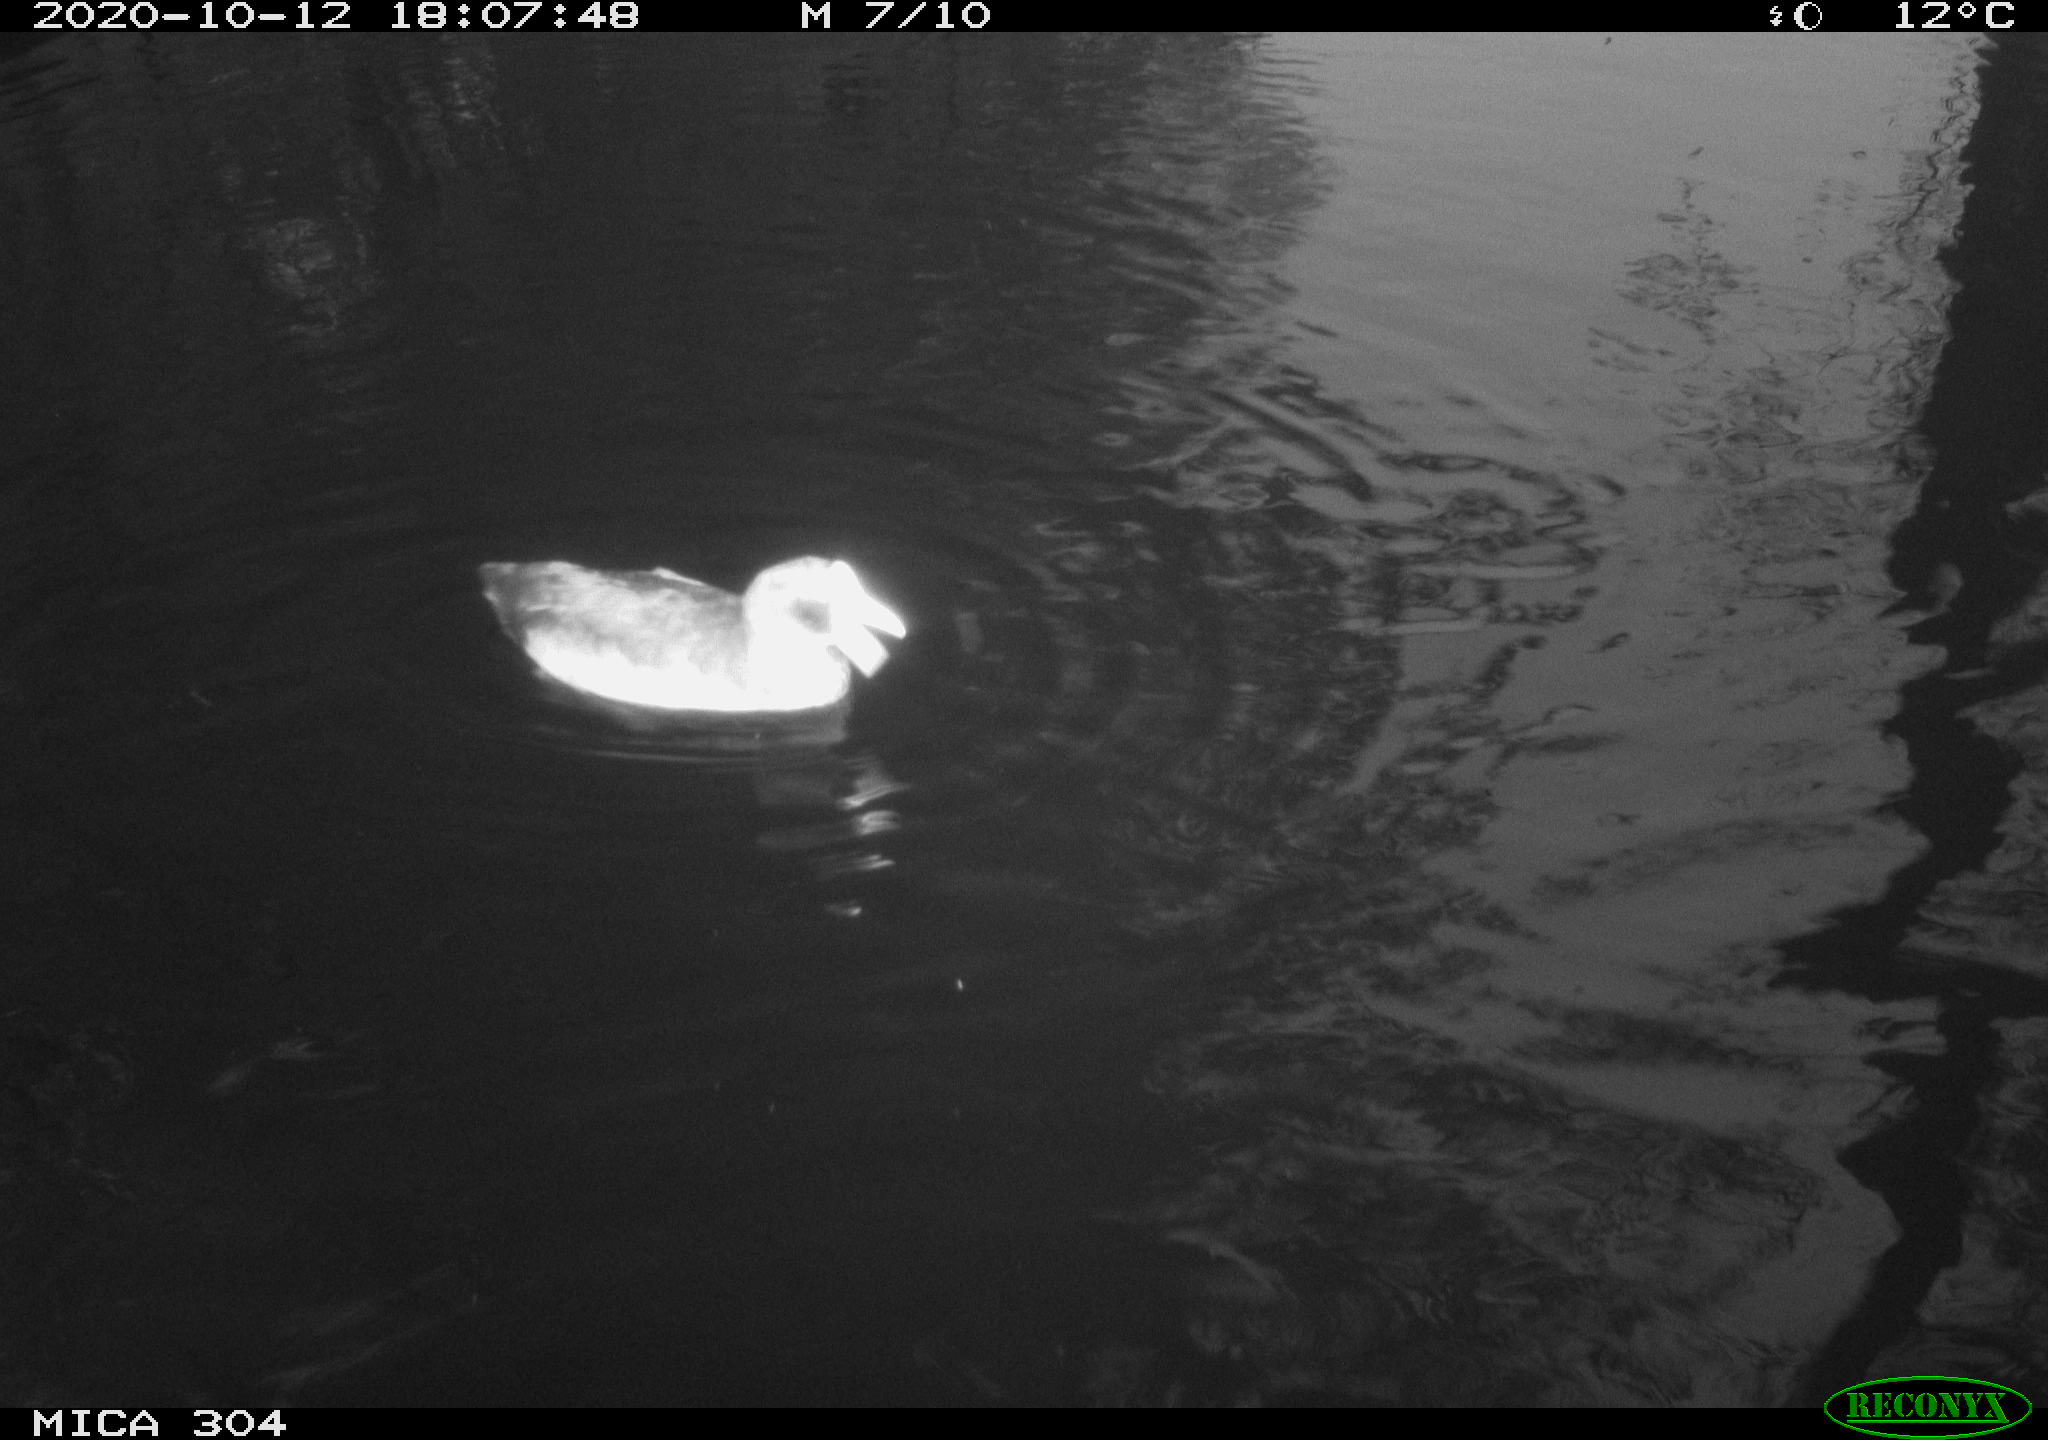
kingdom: Animalia
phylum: Chordata
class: Aves
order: Anseriformes
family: Anatidae
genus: Mareca
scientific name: Mareca strepera
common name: Gadwall
